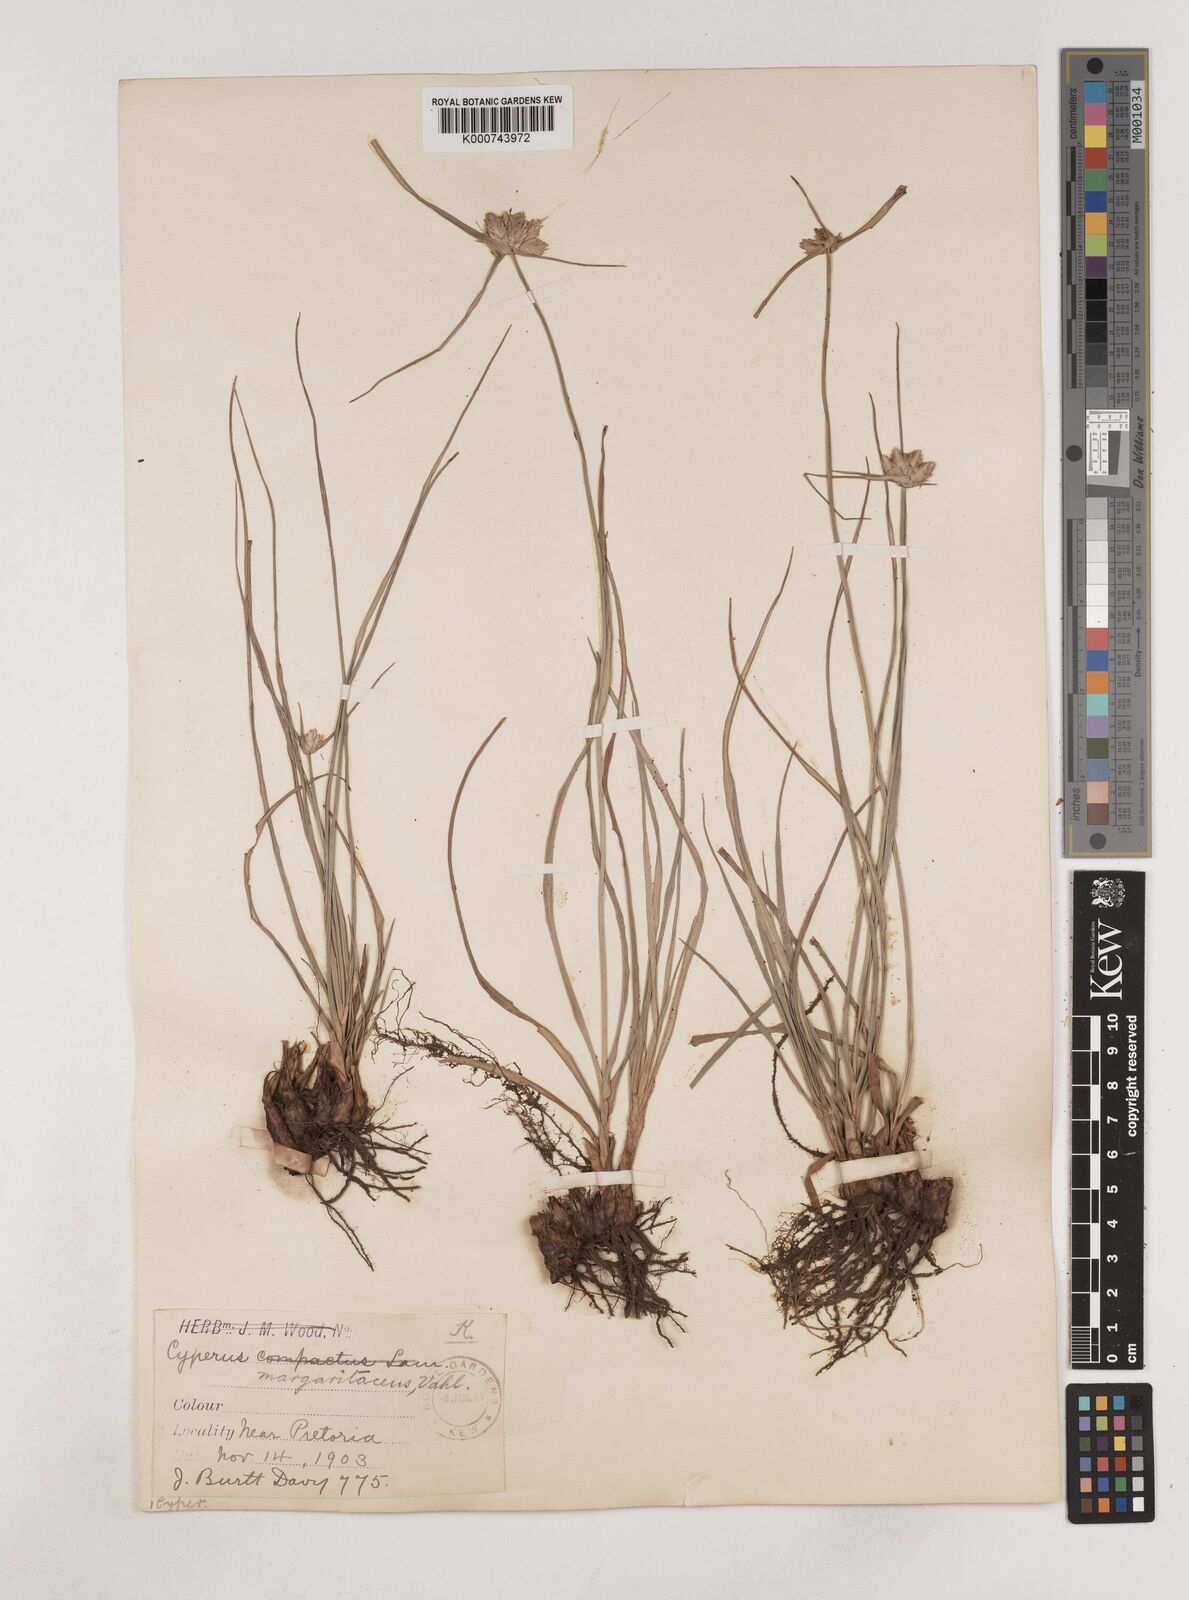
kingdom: Plantae
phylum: Tracheophyta
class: Liliopsida
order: Poales
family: Cyperaceae
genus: Cyperus
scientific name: Cyperus margaritaceus
